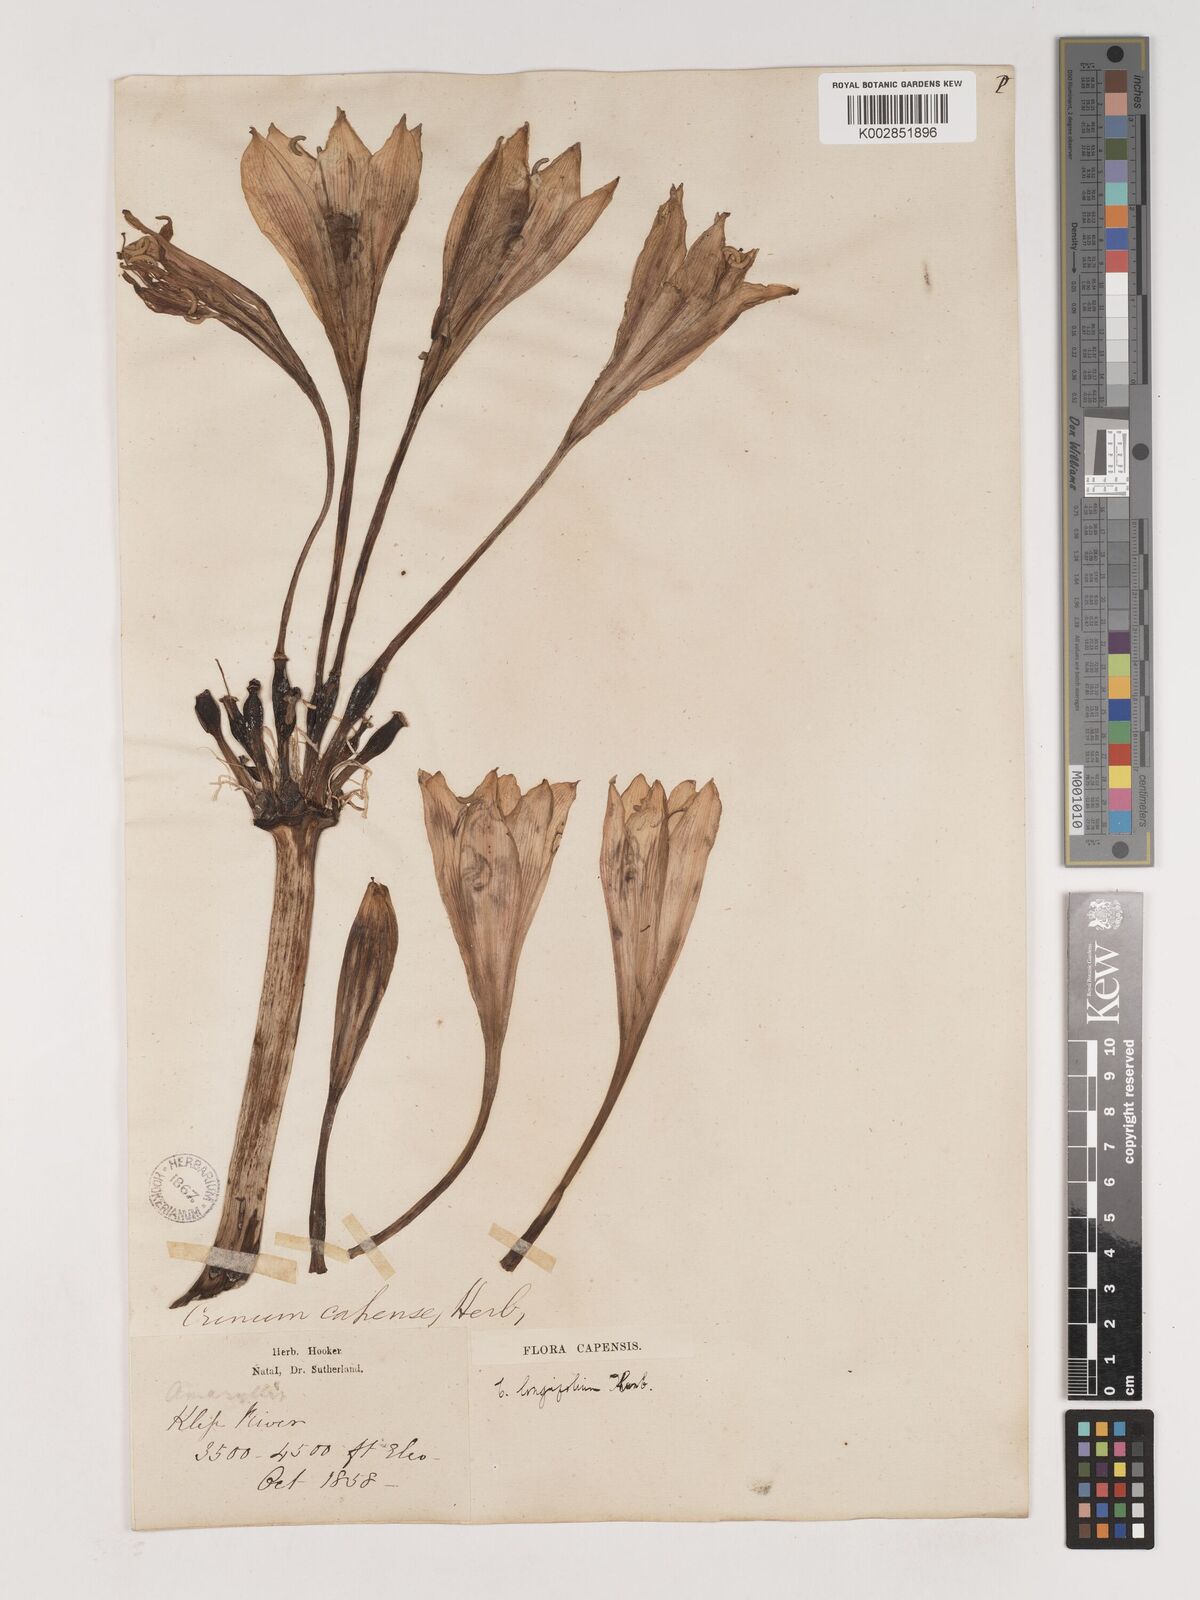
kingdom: Plantae
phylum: Tracheophyta
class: Liliopsida
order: Asparagales
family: Amaryllidaceae
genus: Crinum
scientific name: Crinum bulbispermum
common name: Hardy swamplily
